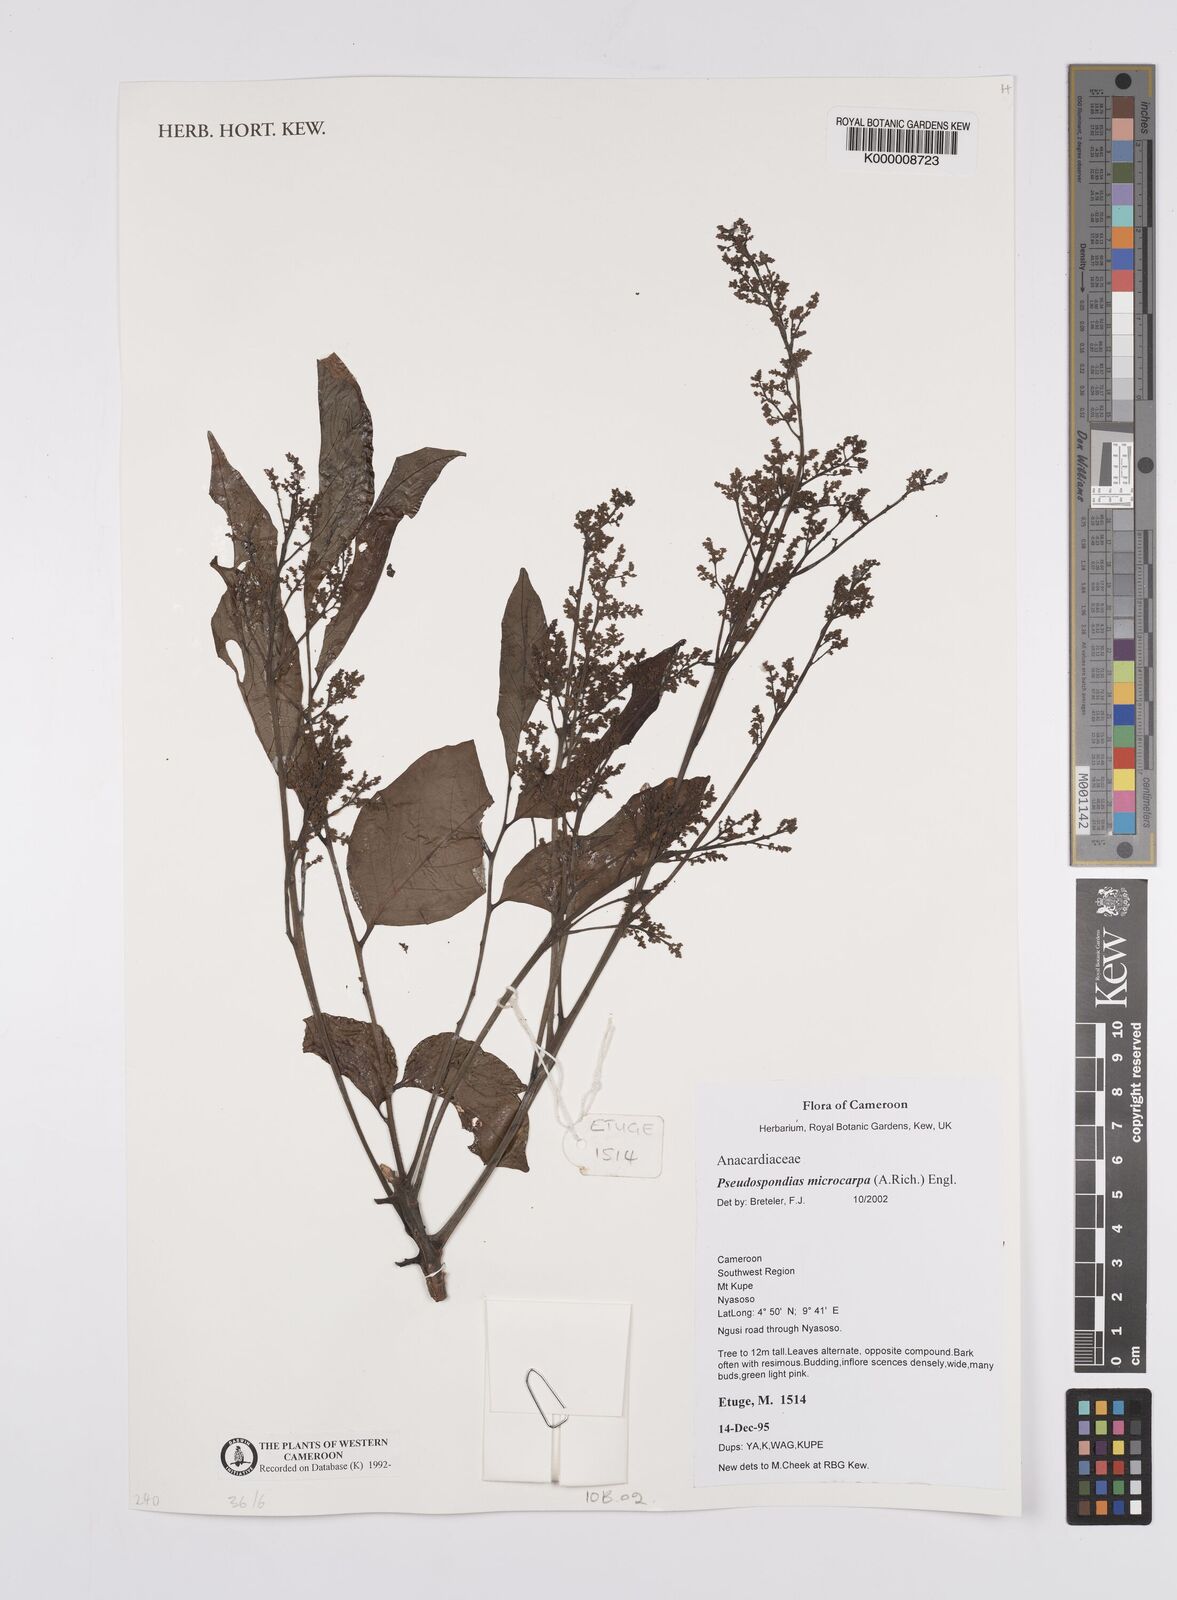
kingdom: Plantae
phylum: Tracheophyta
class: Magnoliopsida
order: Sapindales
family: Anacardiaceae
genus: Pseudospondias
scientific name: Pseudospondias microcarpa
